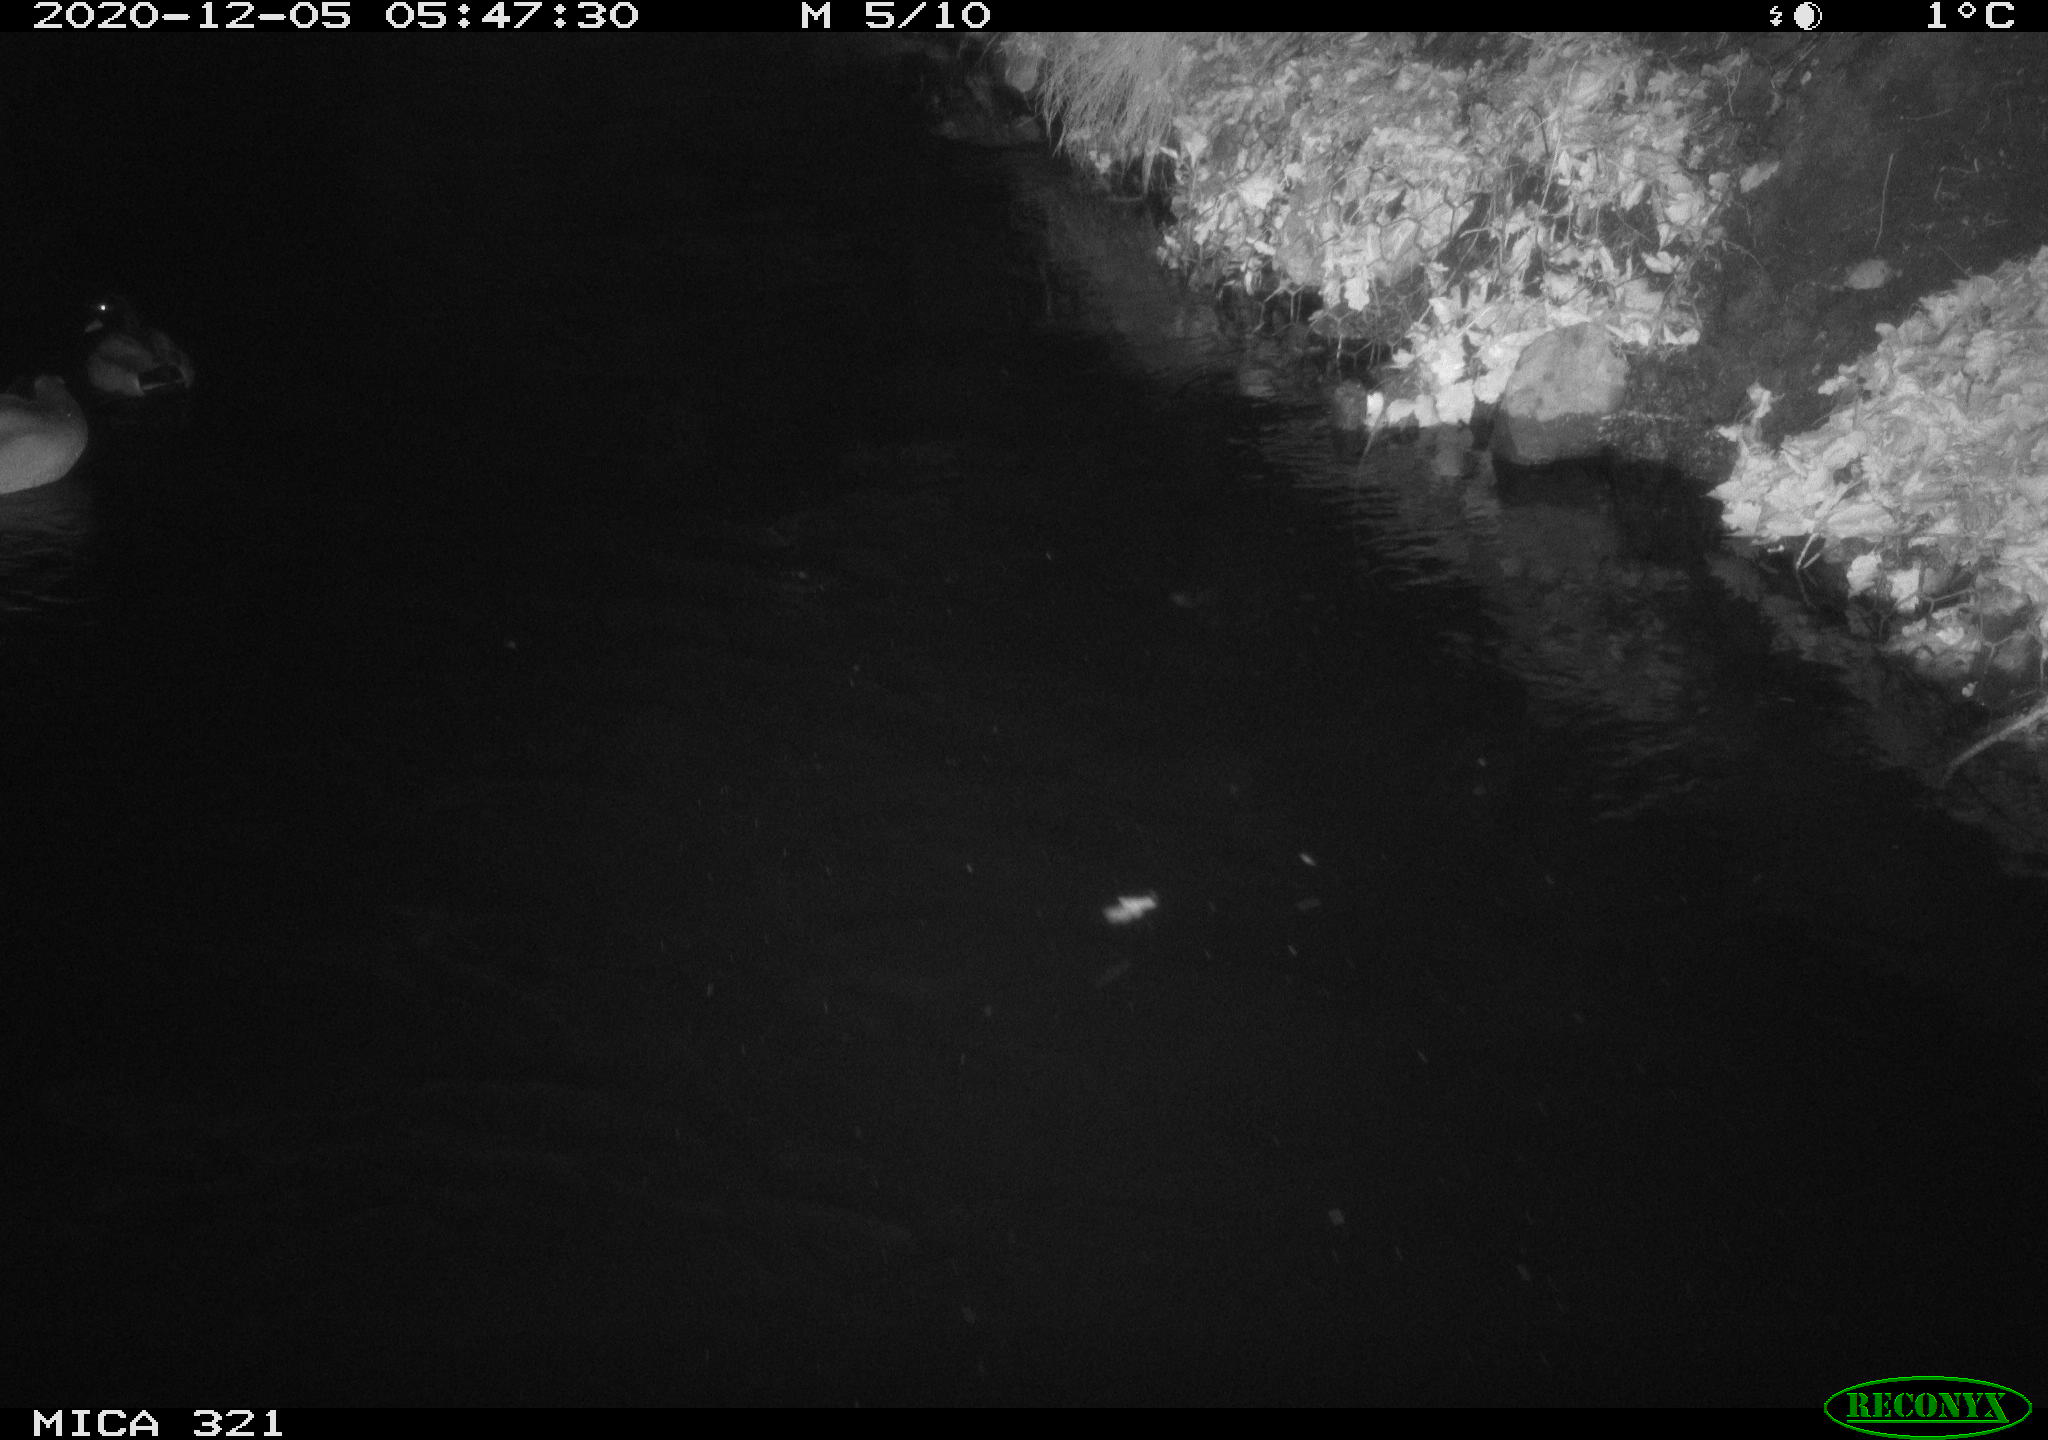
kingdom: Animalia
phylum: Chordata
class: Aves
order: Anseriformes
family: Anatidae
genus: Anas
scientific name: Anas platyrhynchos
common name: Mallard
